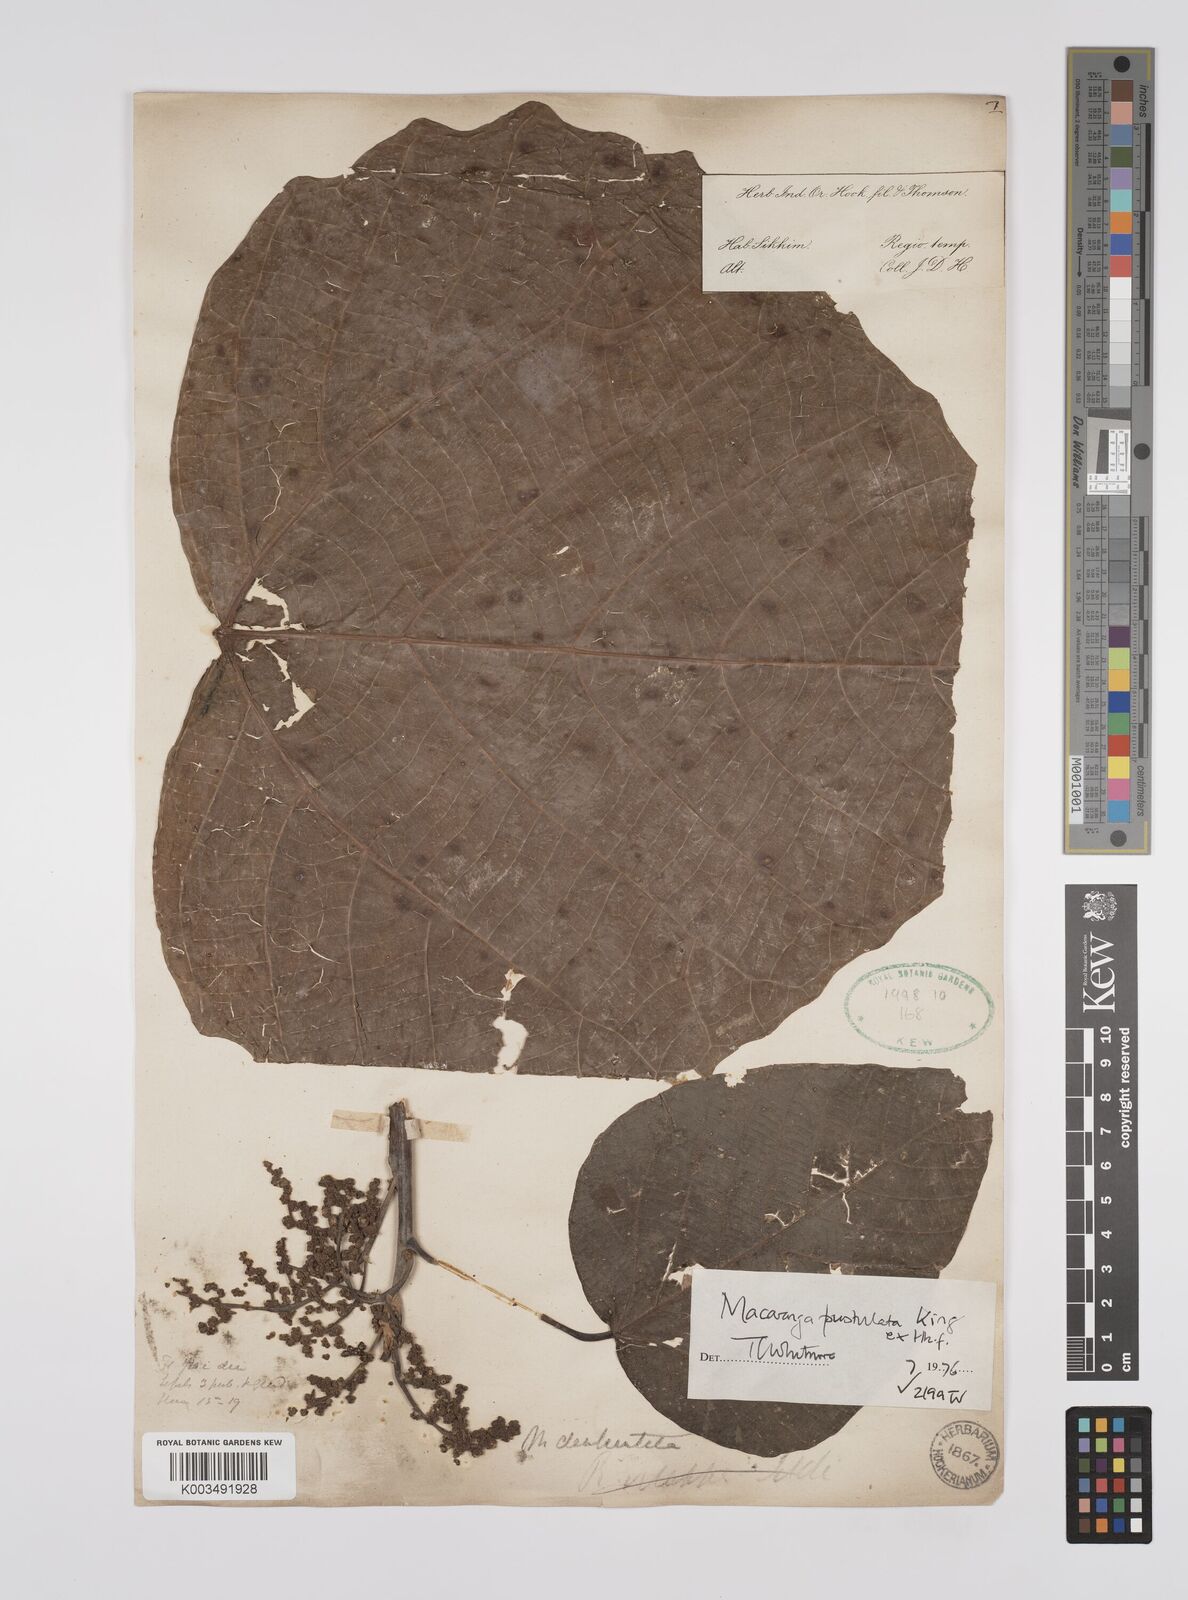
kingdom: Plantae
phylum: Tracheophyta
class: Magnoliopsida
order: Malpighiales
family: Euphorbiaceae
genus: Macaranga
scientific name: Macaranga denticulata
